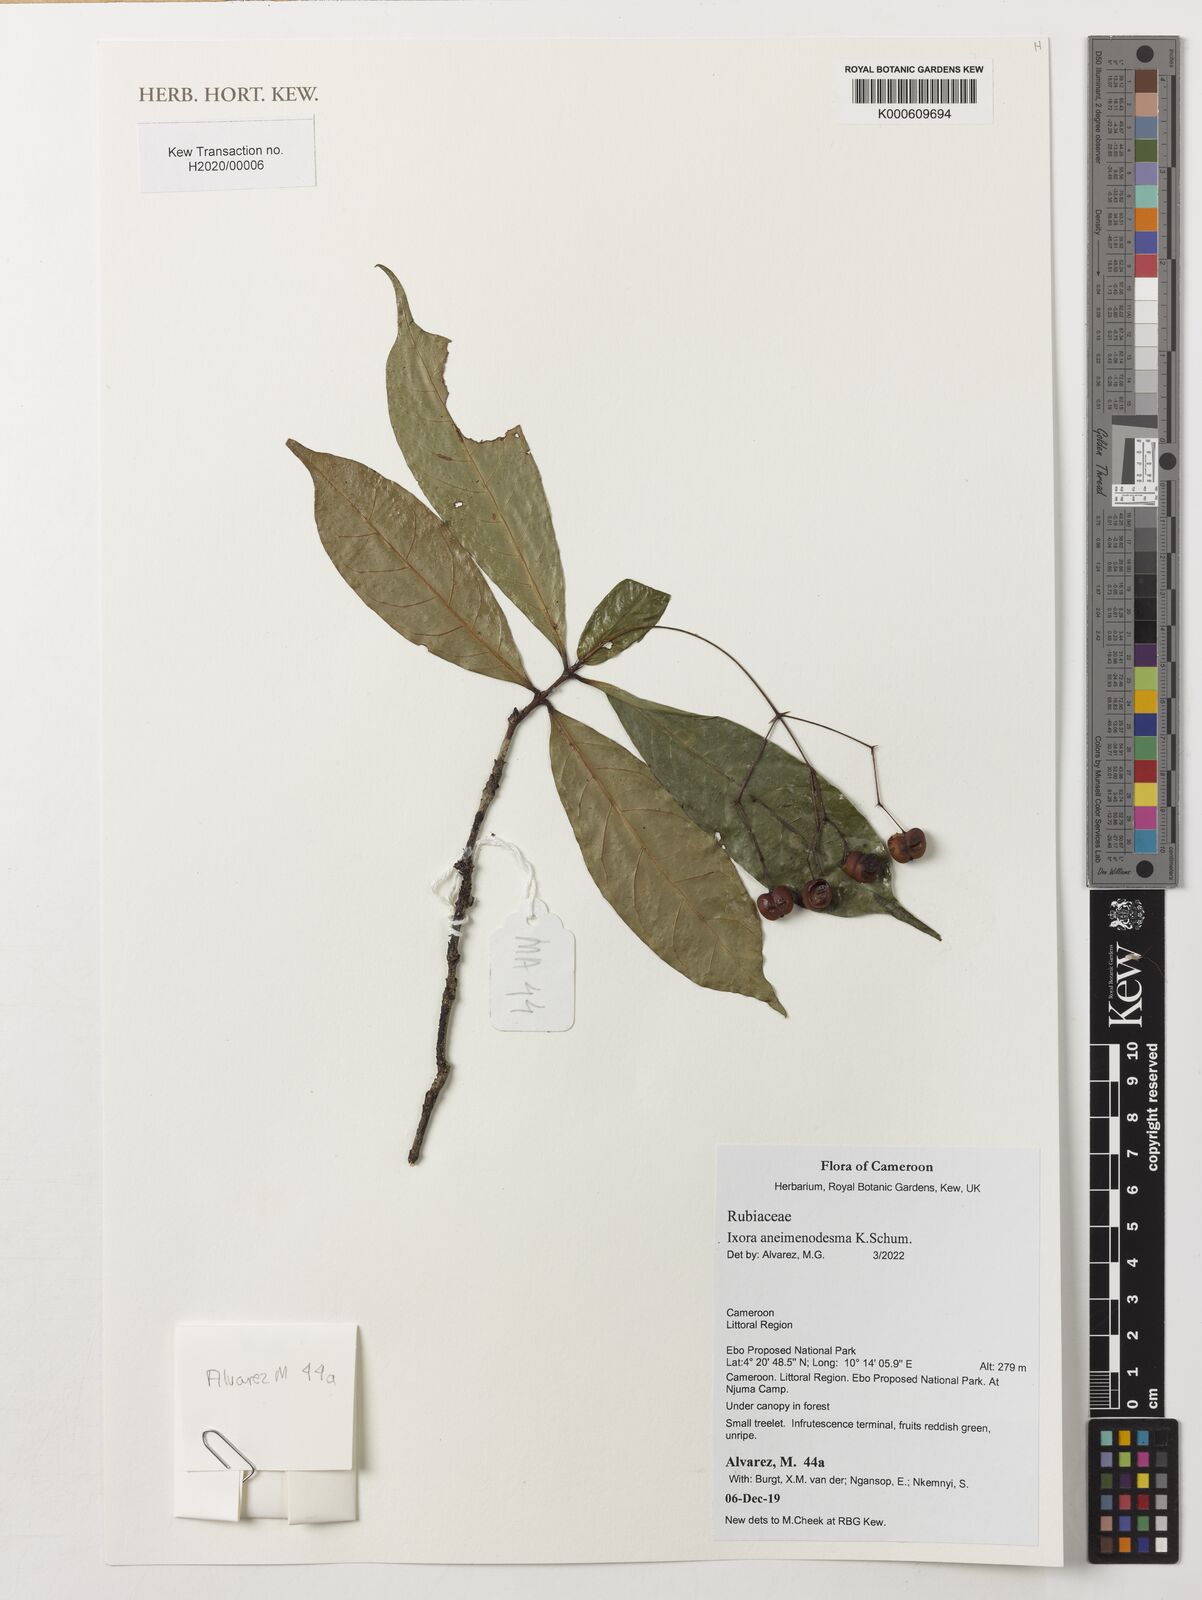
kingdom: Plantae
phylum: Tracheophyta
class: Magnoliopsida
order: Gentianales
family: Rubiaceae
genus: Ixora
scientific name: Ixora aneimenodesma
